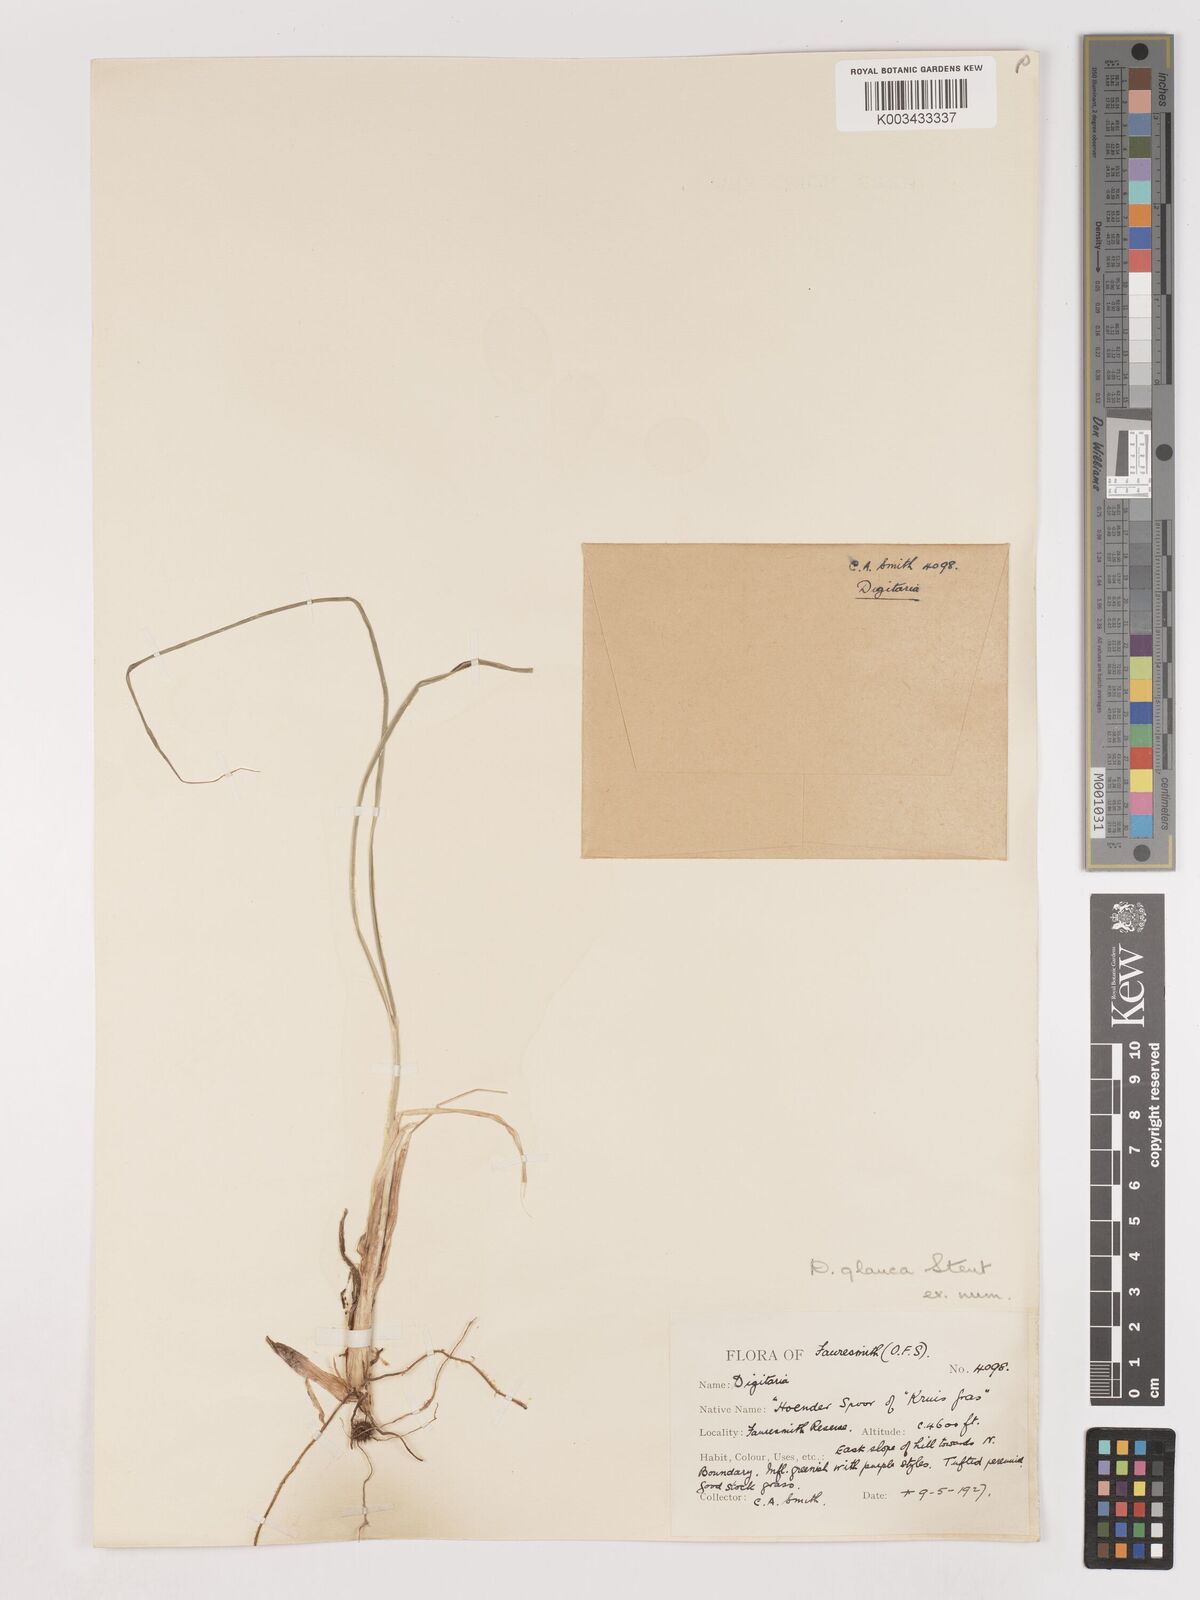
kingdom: Plantae
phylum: Tracheophyta
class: Liliopsida
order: Poales
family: Poaceae
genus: Digitaria
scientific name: Digitaria eriantha
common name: Digitgrass
